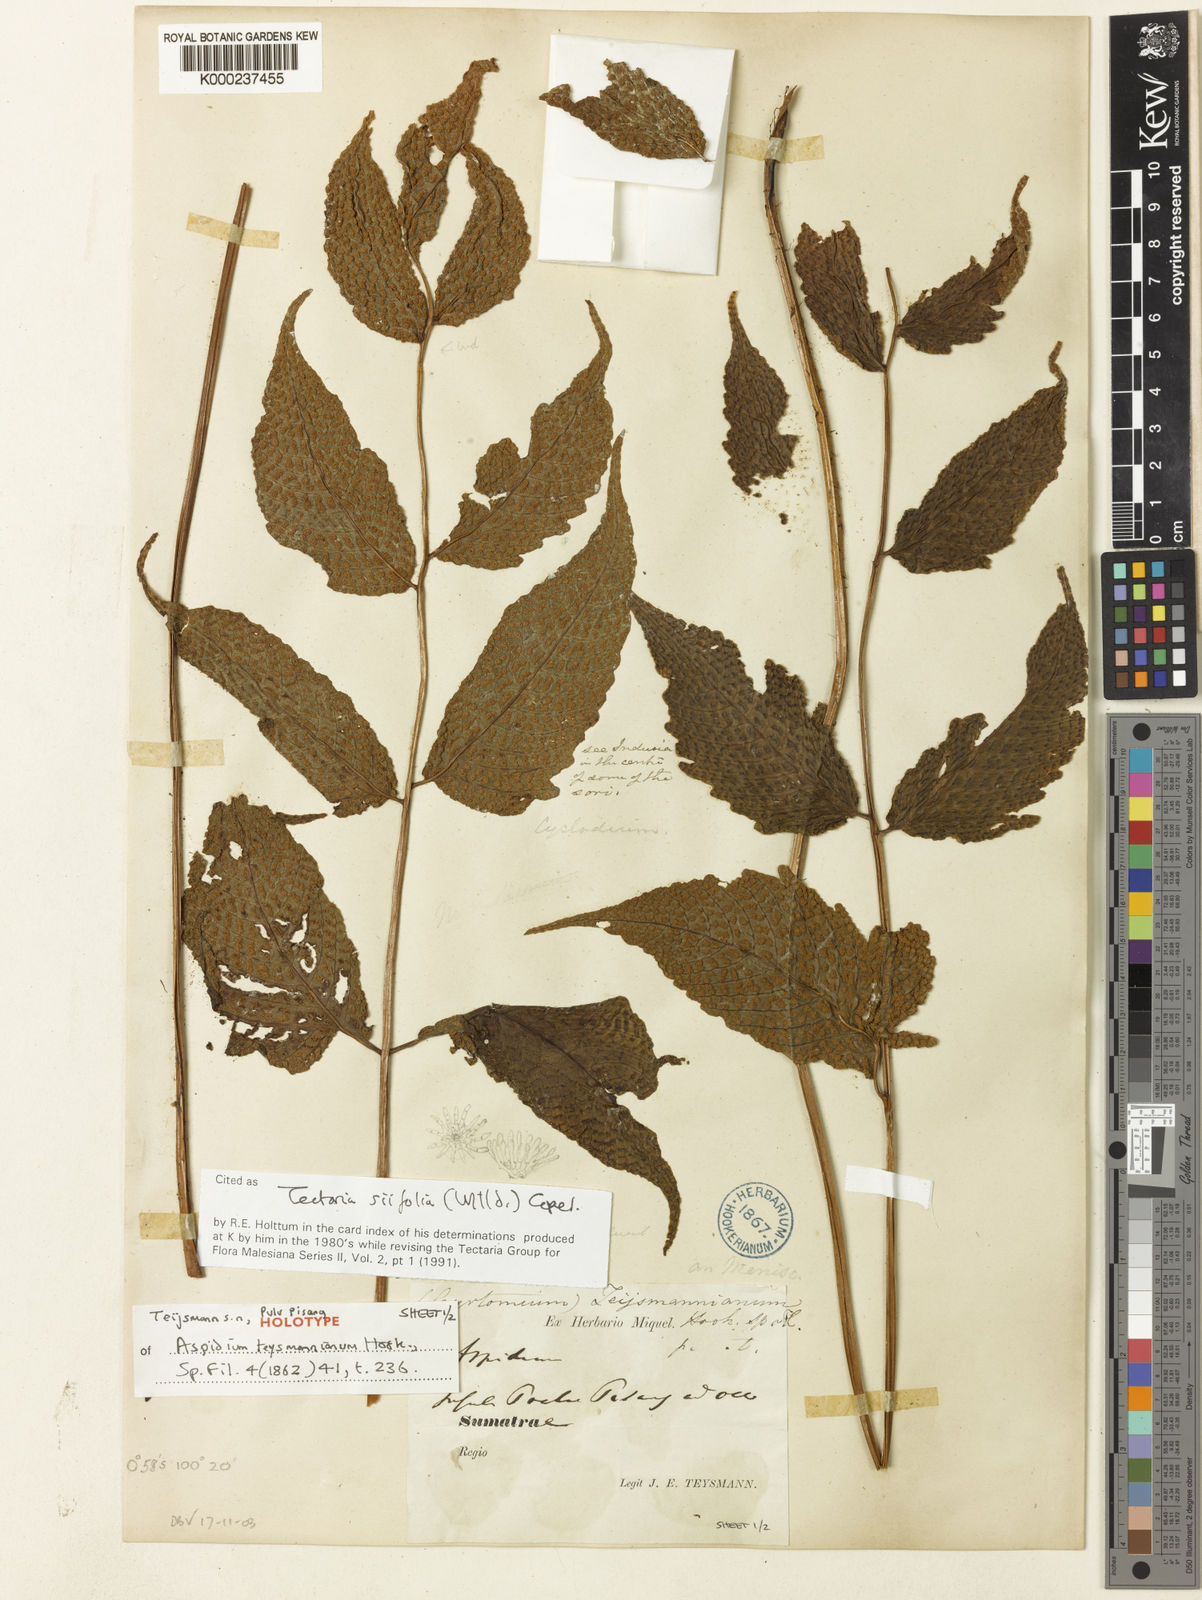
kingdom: Plantae
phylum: Tracheophyta
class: Polypodiopsida
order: Polypodiales
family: Tectariaceae
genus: Tectaria
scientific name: Tectaria siifolia
